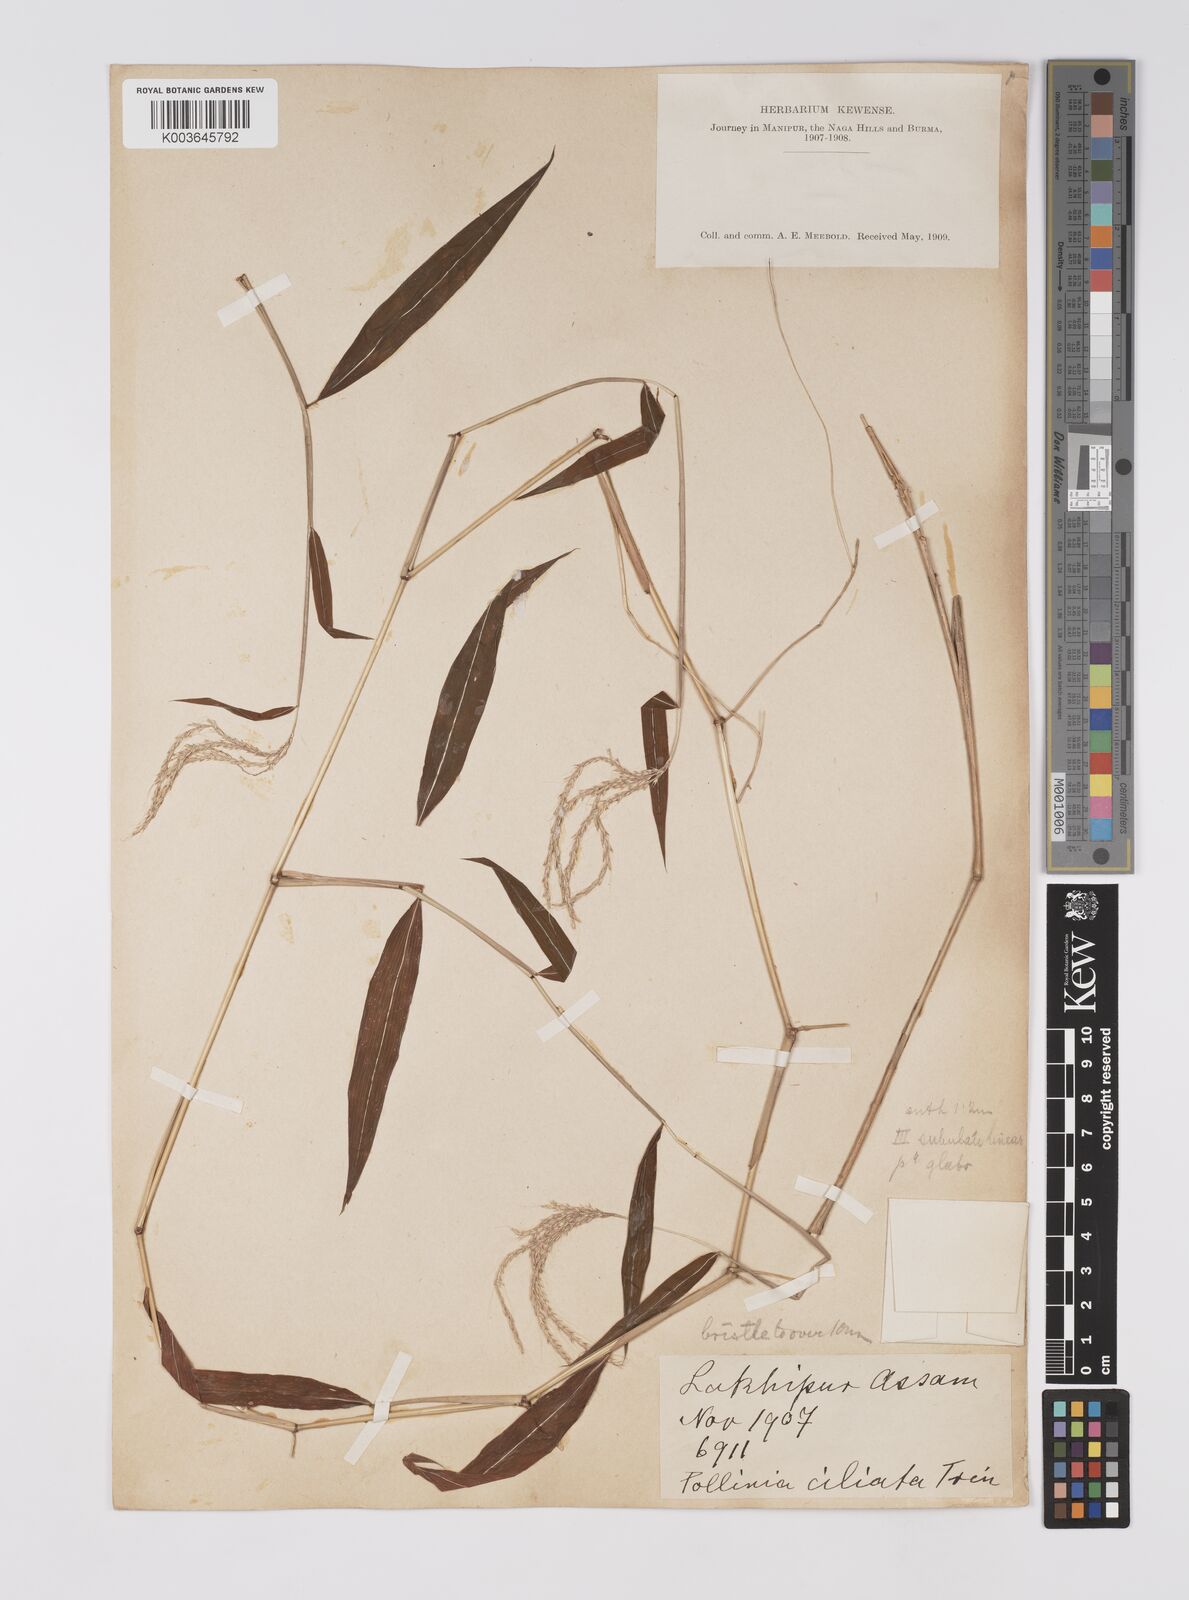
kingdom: Plantae
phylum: Tracheophyta
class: Liliopsida
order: Poales
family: Poaceae
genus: Microstegium
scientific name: Microstegium fasciculatum
